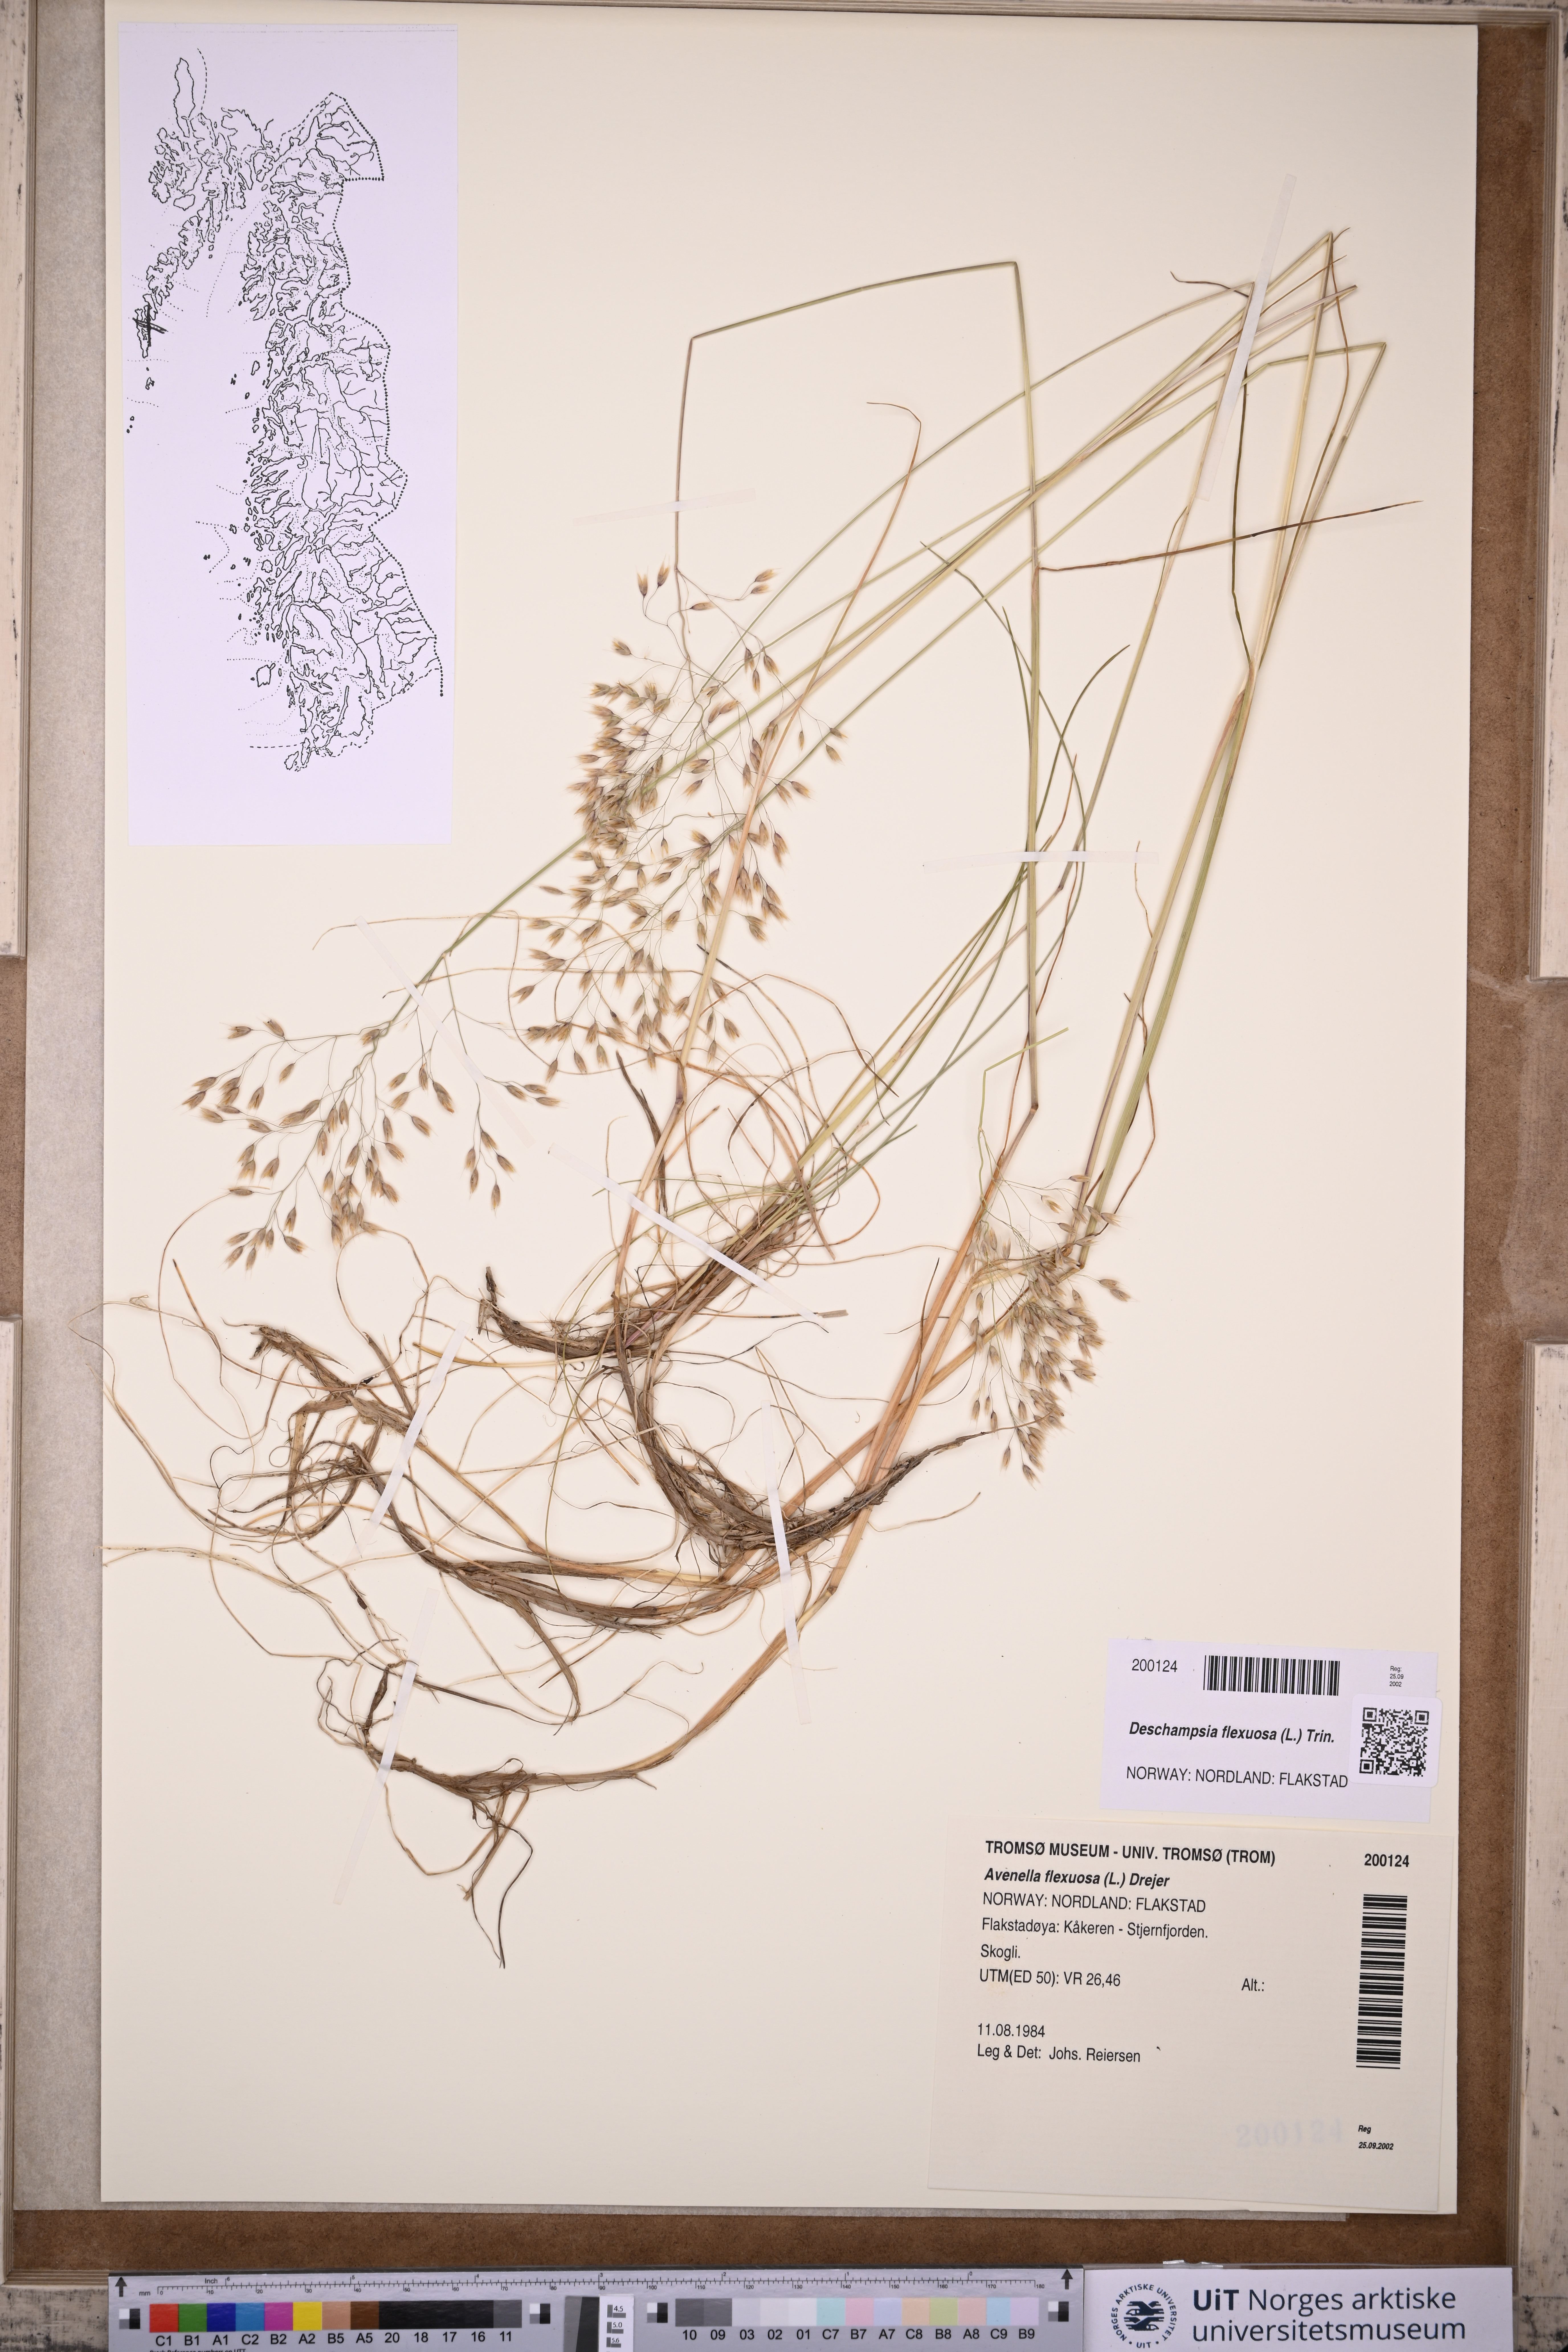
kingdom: Plantae
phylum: Tracheophyta
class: Liliopsida
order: Poales
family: Poaceae
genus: Avenella
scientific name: Avenella flexuosa
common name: Wavy hairgrass
